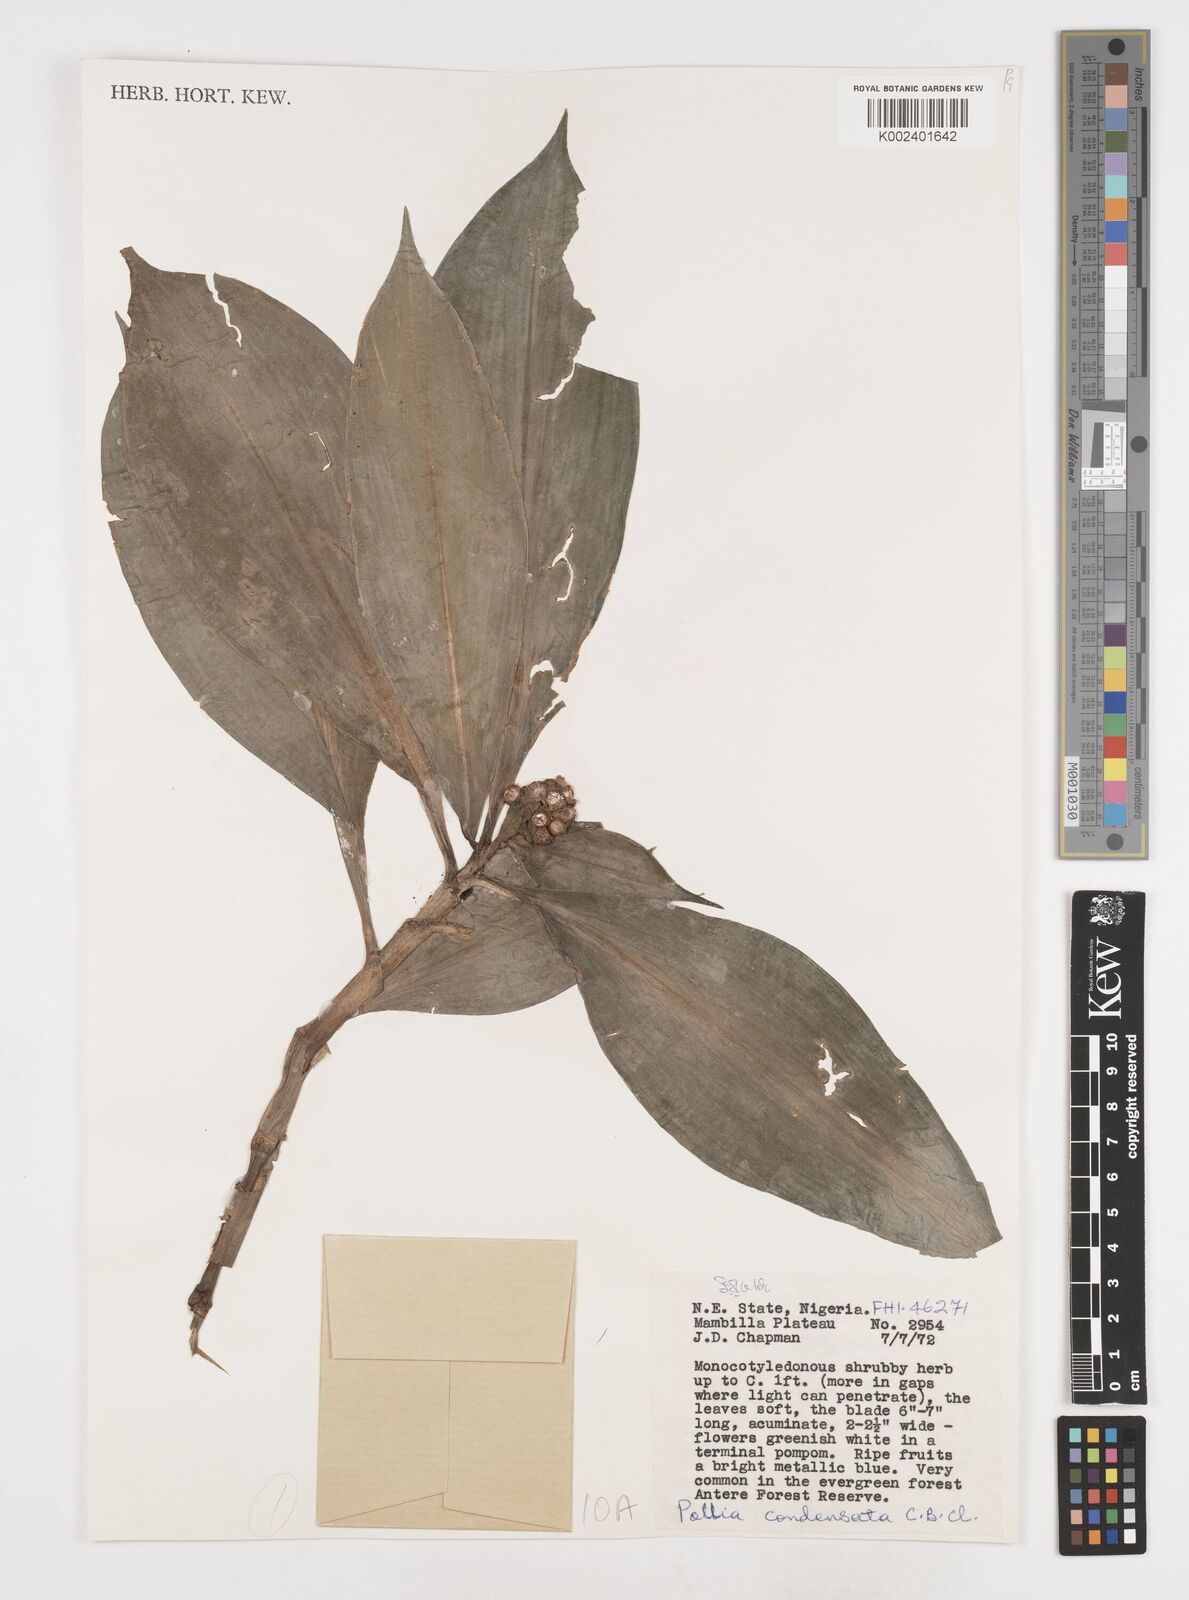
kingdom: Plantae
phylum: Tracheophyta
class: Liliopsida
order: Commelinales
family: Commelinaceae
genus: Pollia
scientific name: Pollia condensata
